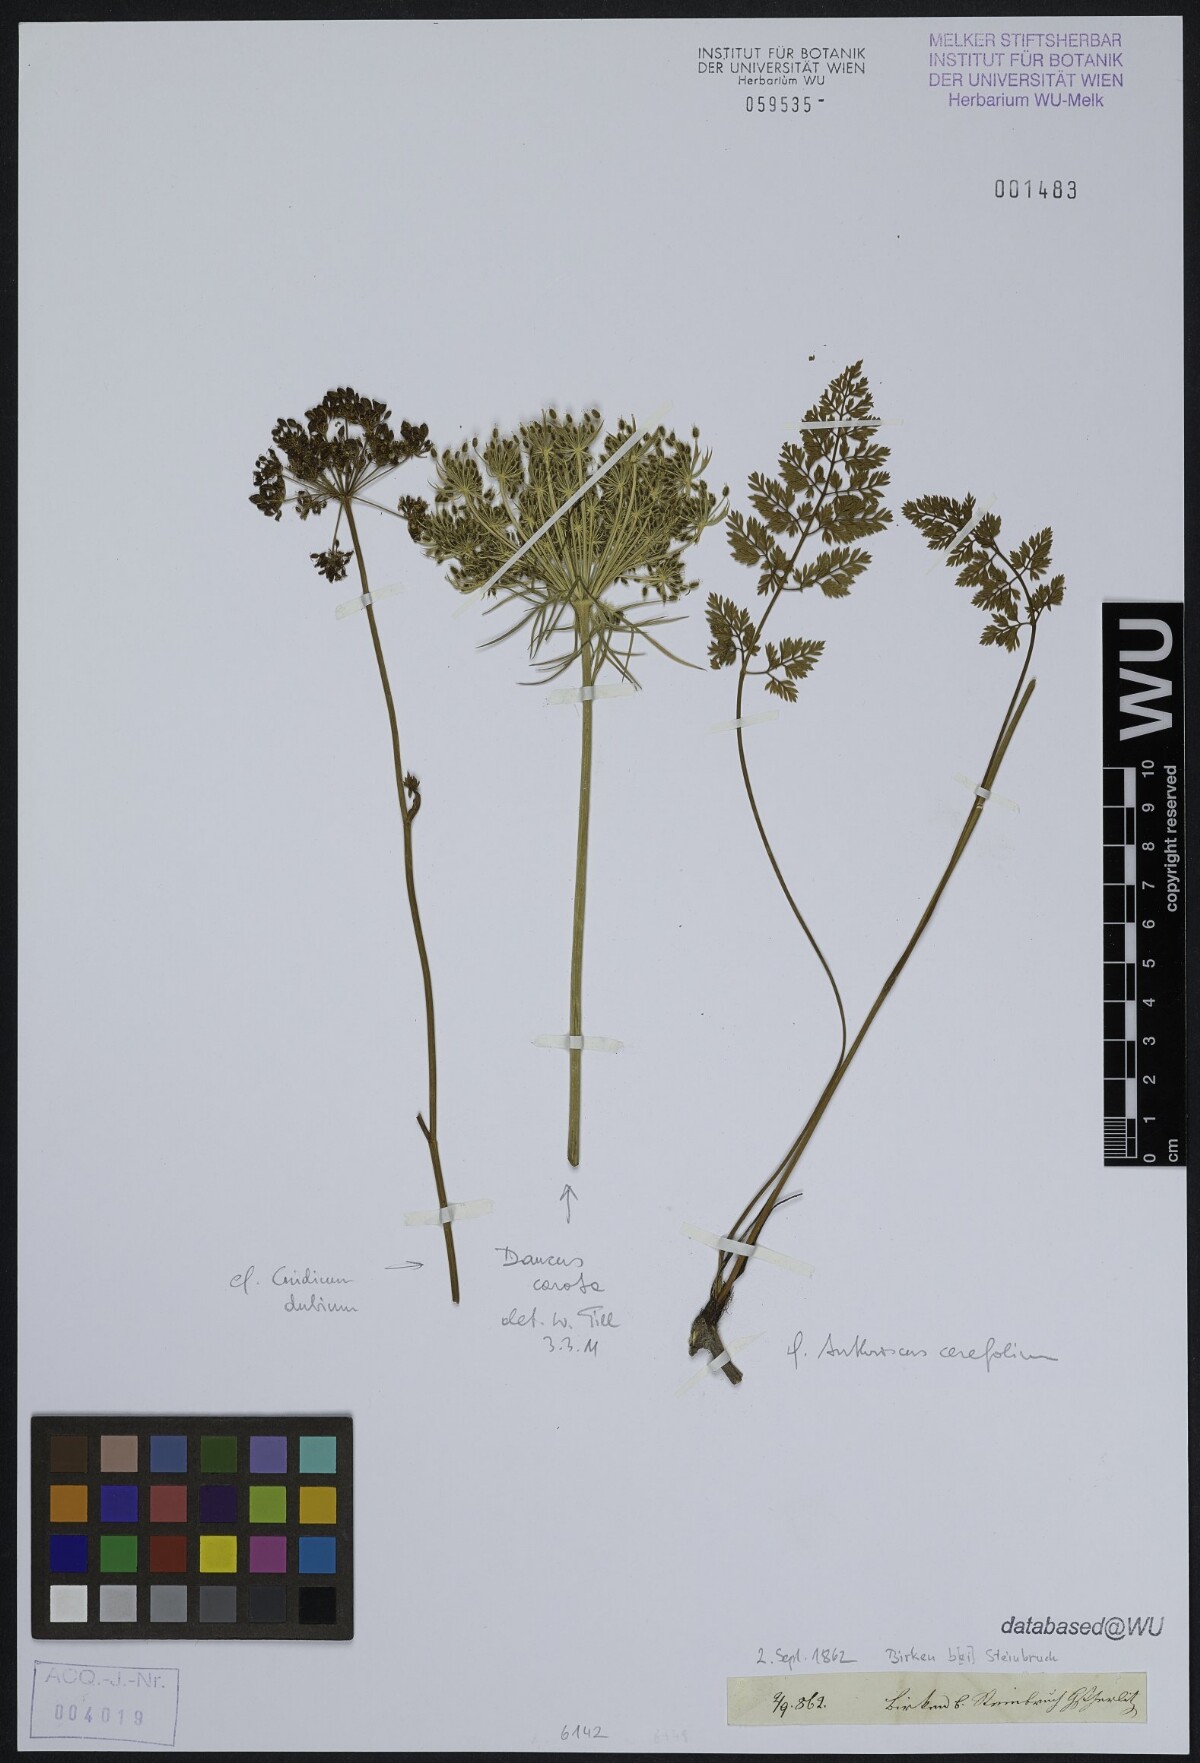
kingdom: Plantae
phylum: Tracheophyta
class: Magnoliopsida
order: Apiales
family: Apiaceae
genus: Daucus
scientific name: Daucus carota
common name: Wild carrot
